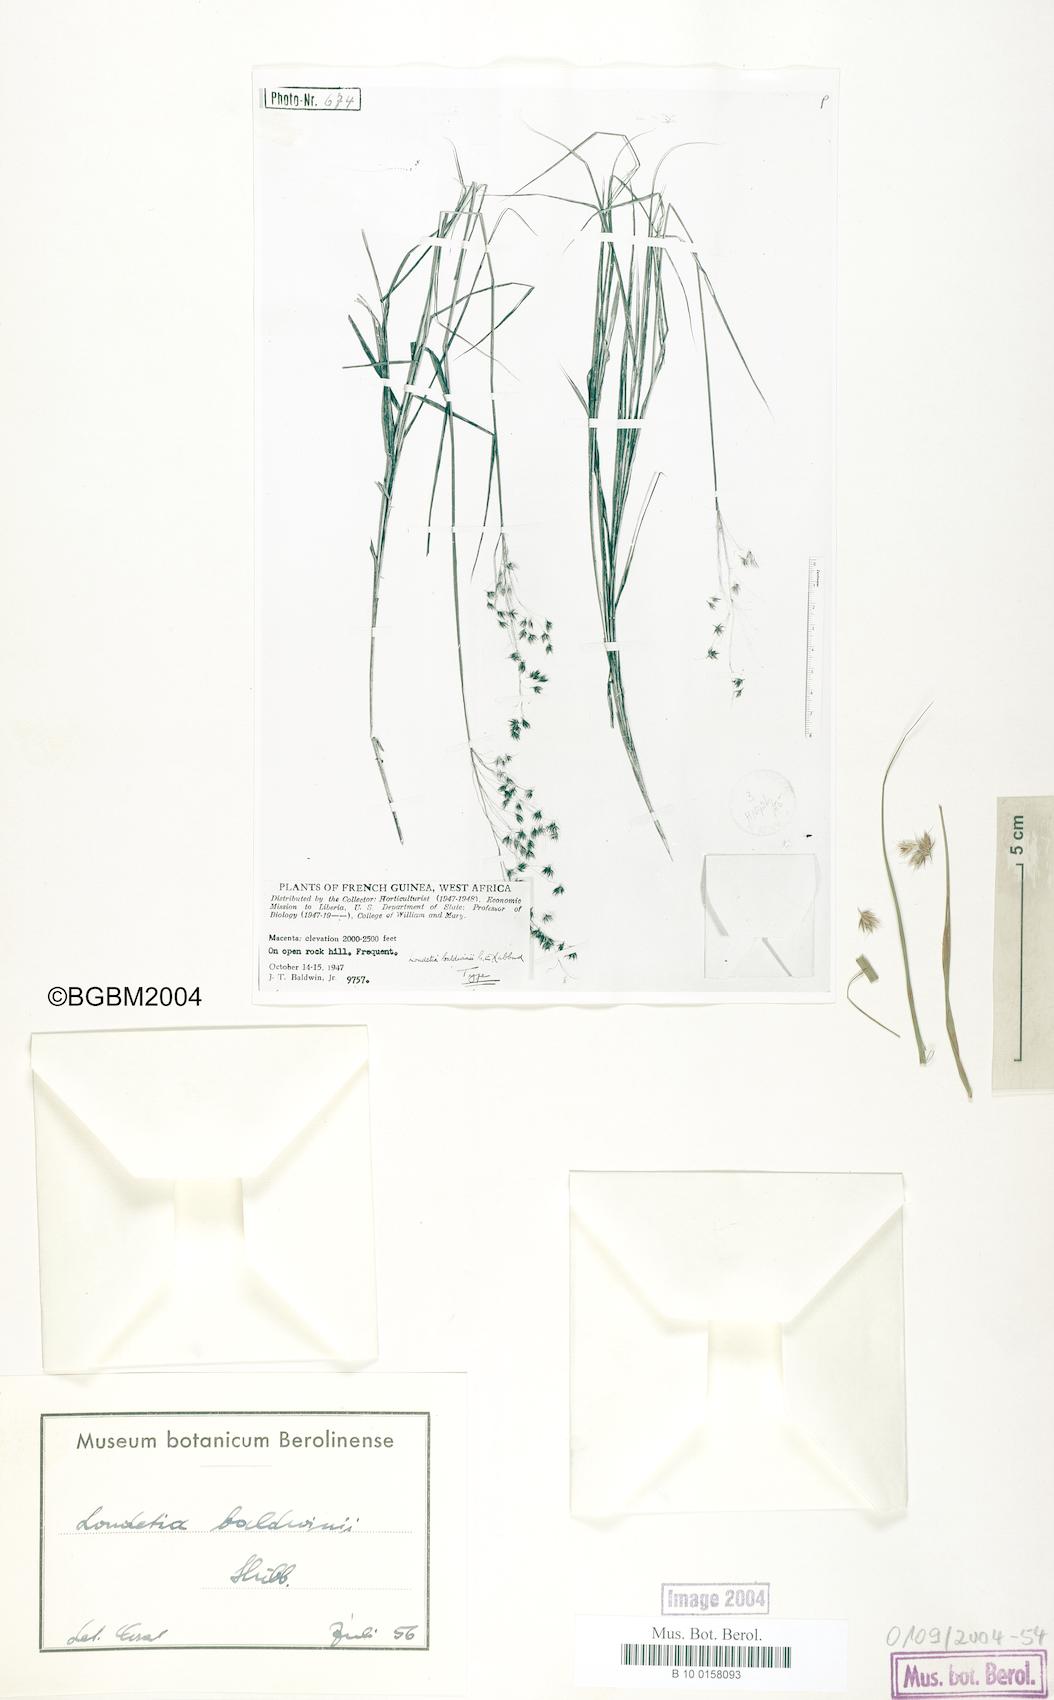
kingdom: Plantae
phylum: Tracheophyta
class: Liliopsida
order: Poales
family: Poaceae
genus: Loudetiopsis
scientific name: Loudetiopsis baldwinii
